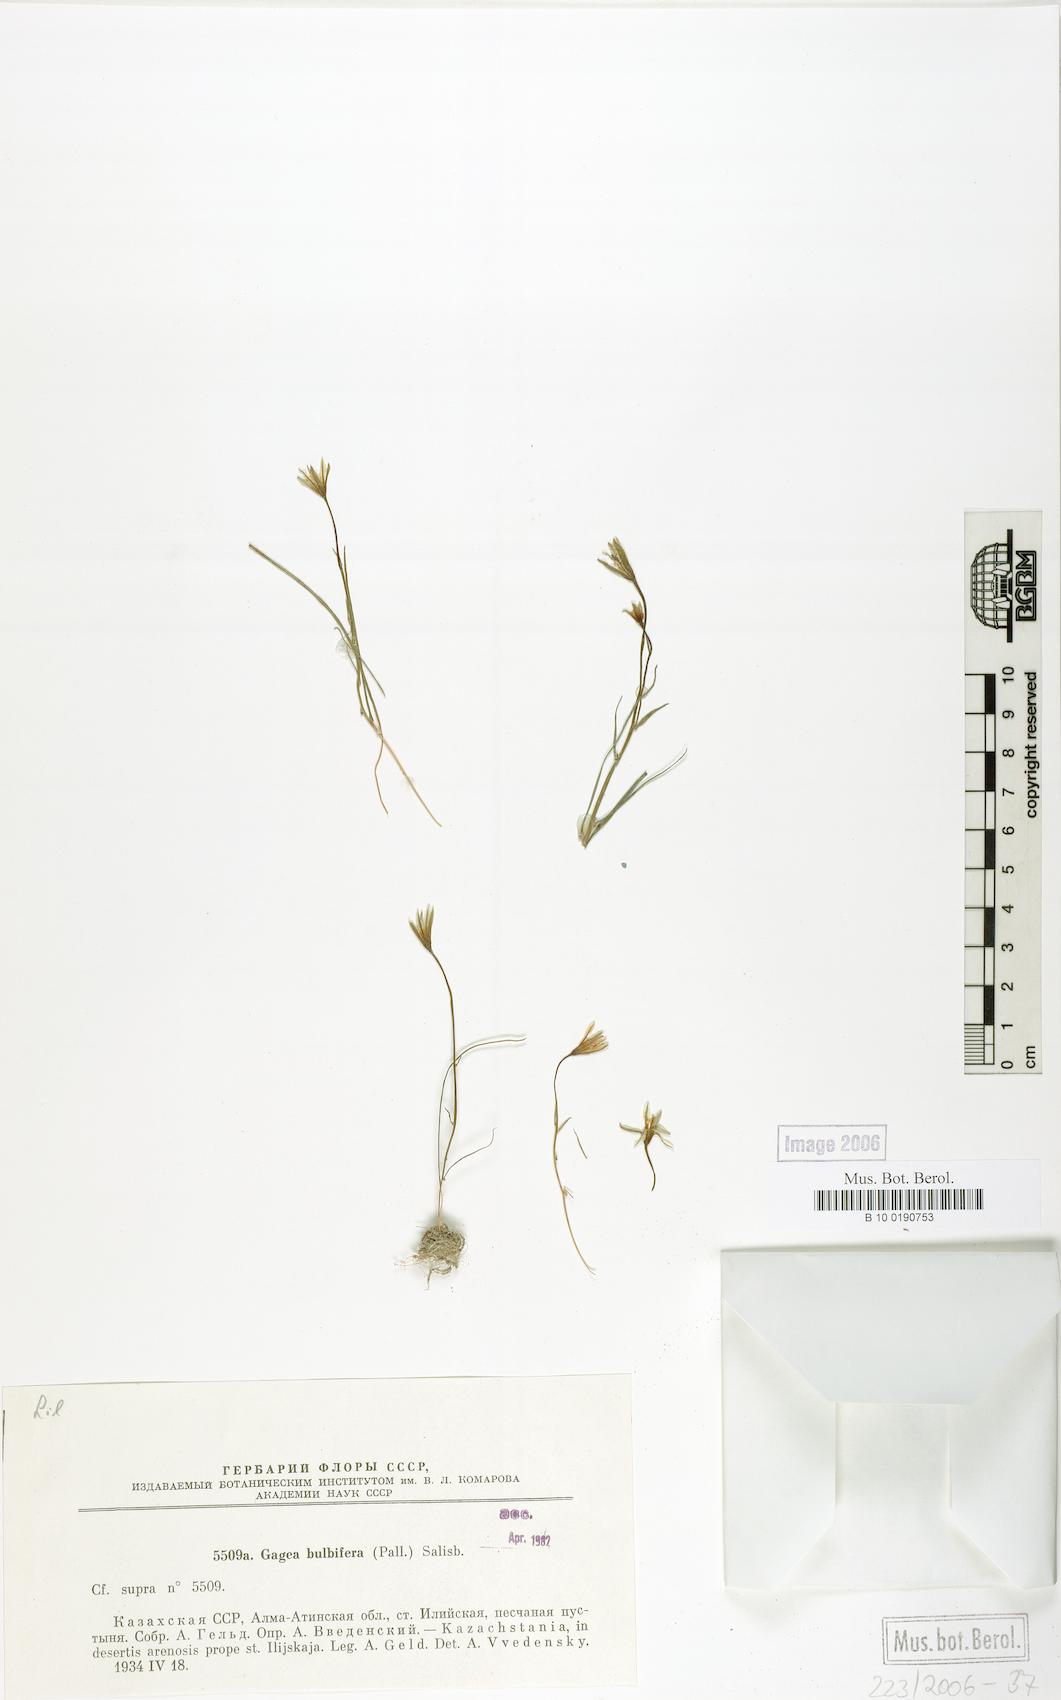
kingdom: Plantae
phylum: Tracheophyta
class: Liliopsida
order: Liliales
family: Liliaceae
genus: Gagea
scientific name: Gagea bulbifera
